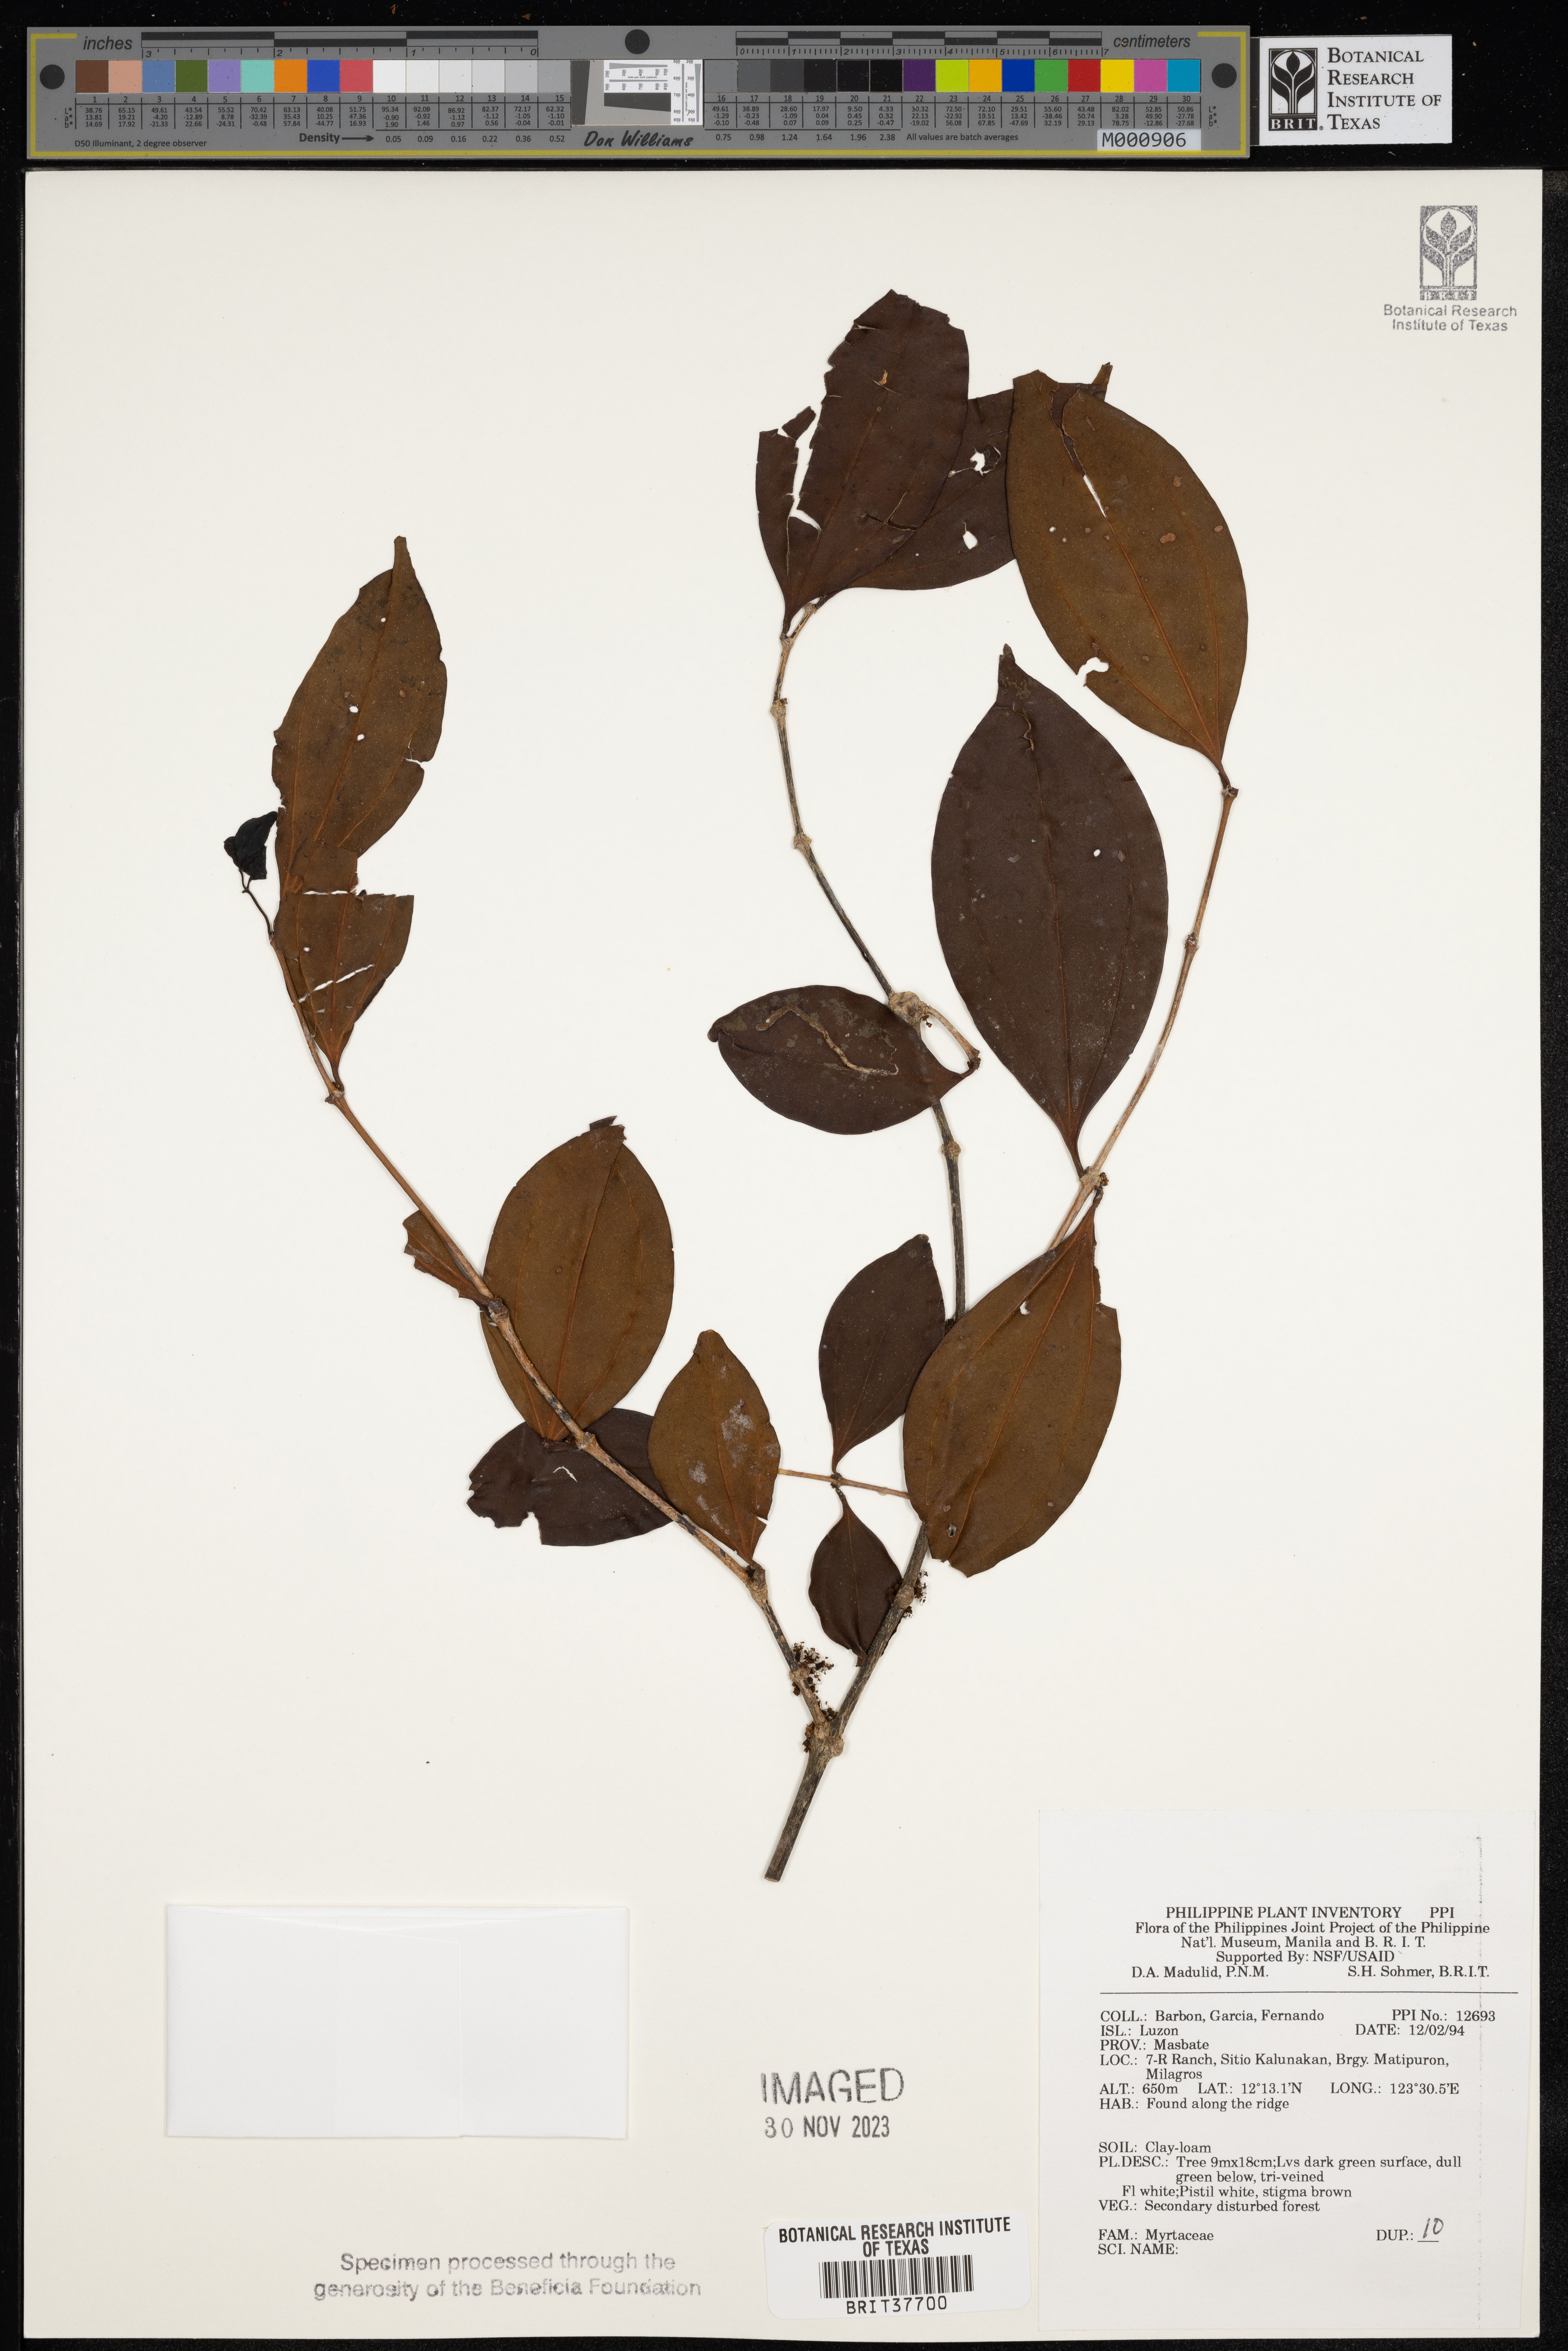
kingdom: Plantae
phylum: Tracheophyta
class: Magnoliopsida
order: Myrtales
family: Myrtaceae
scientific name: Myrtaceae
